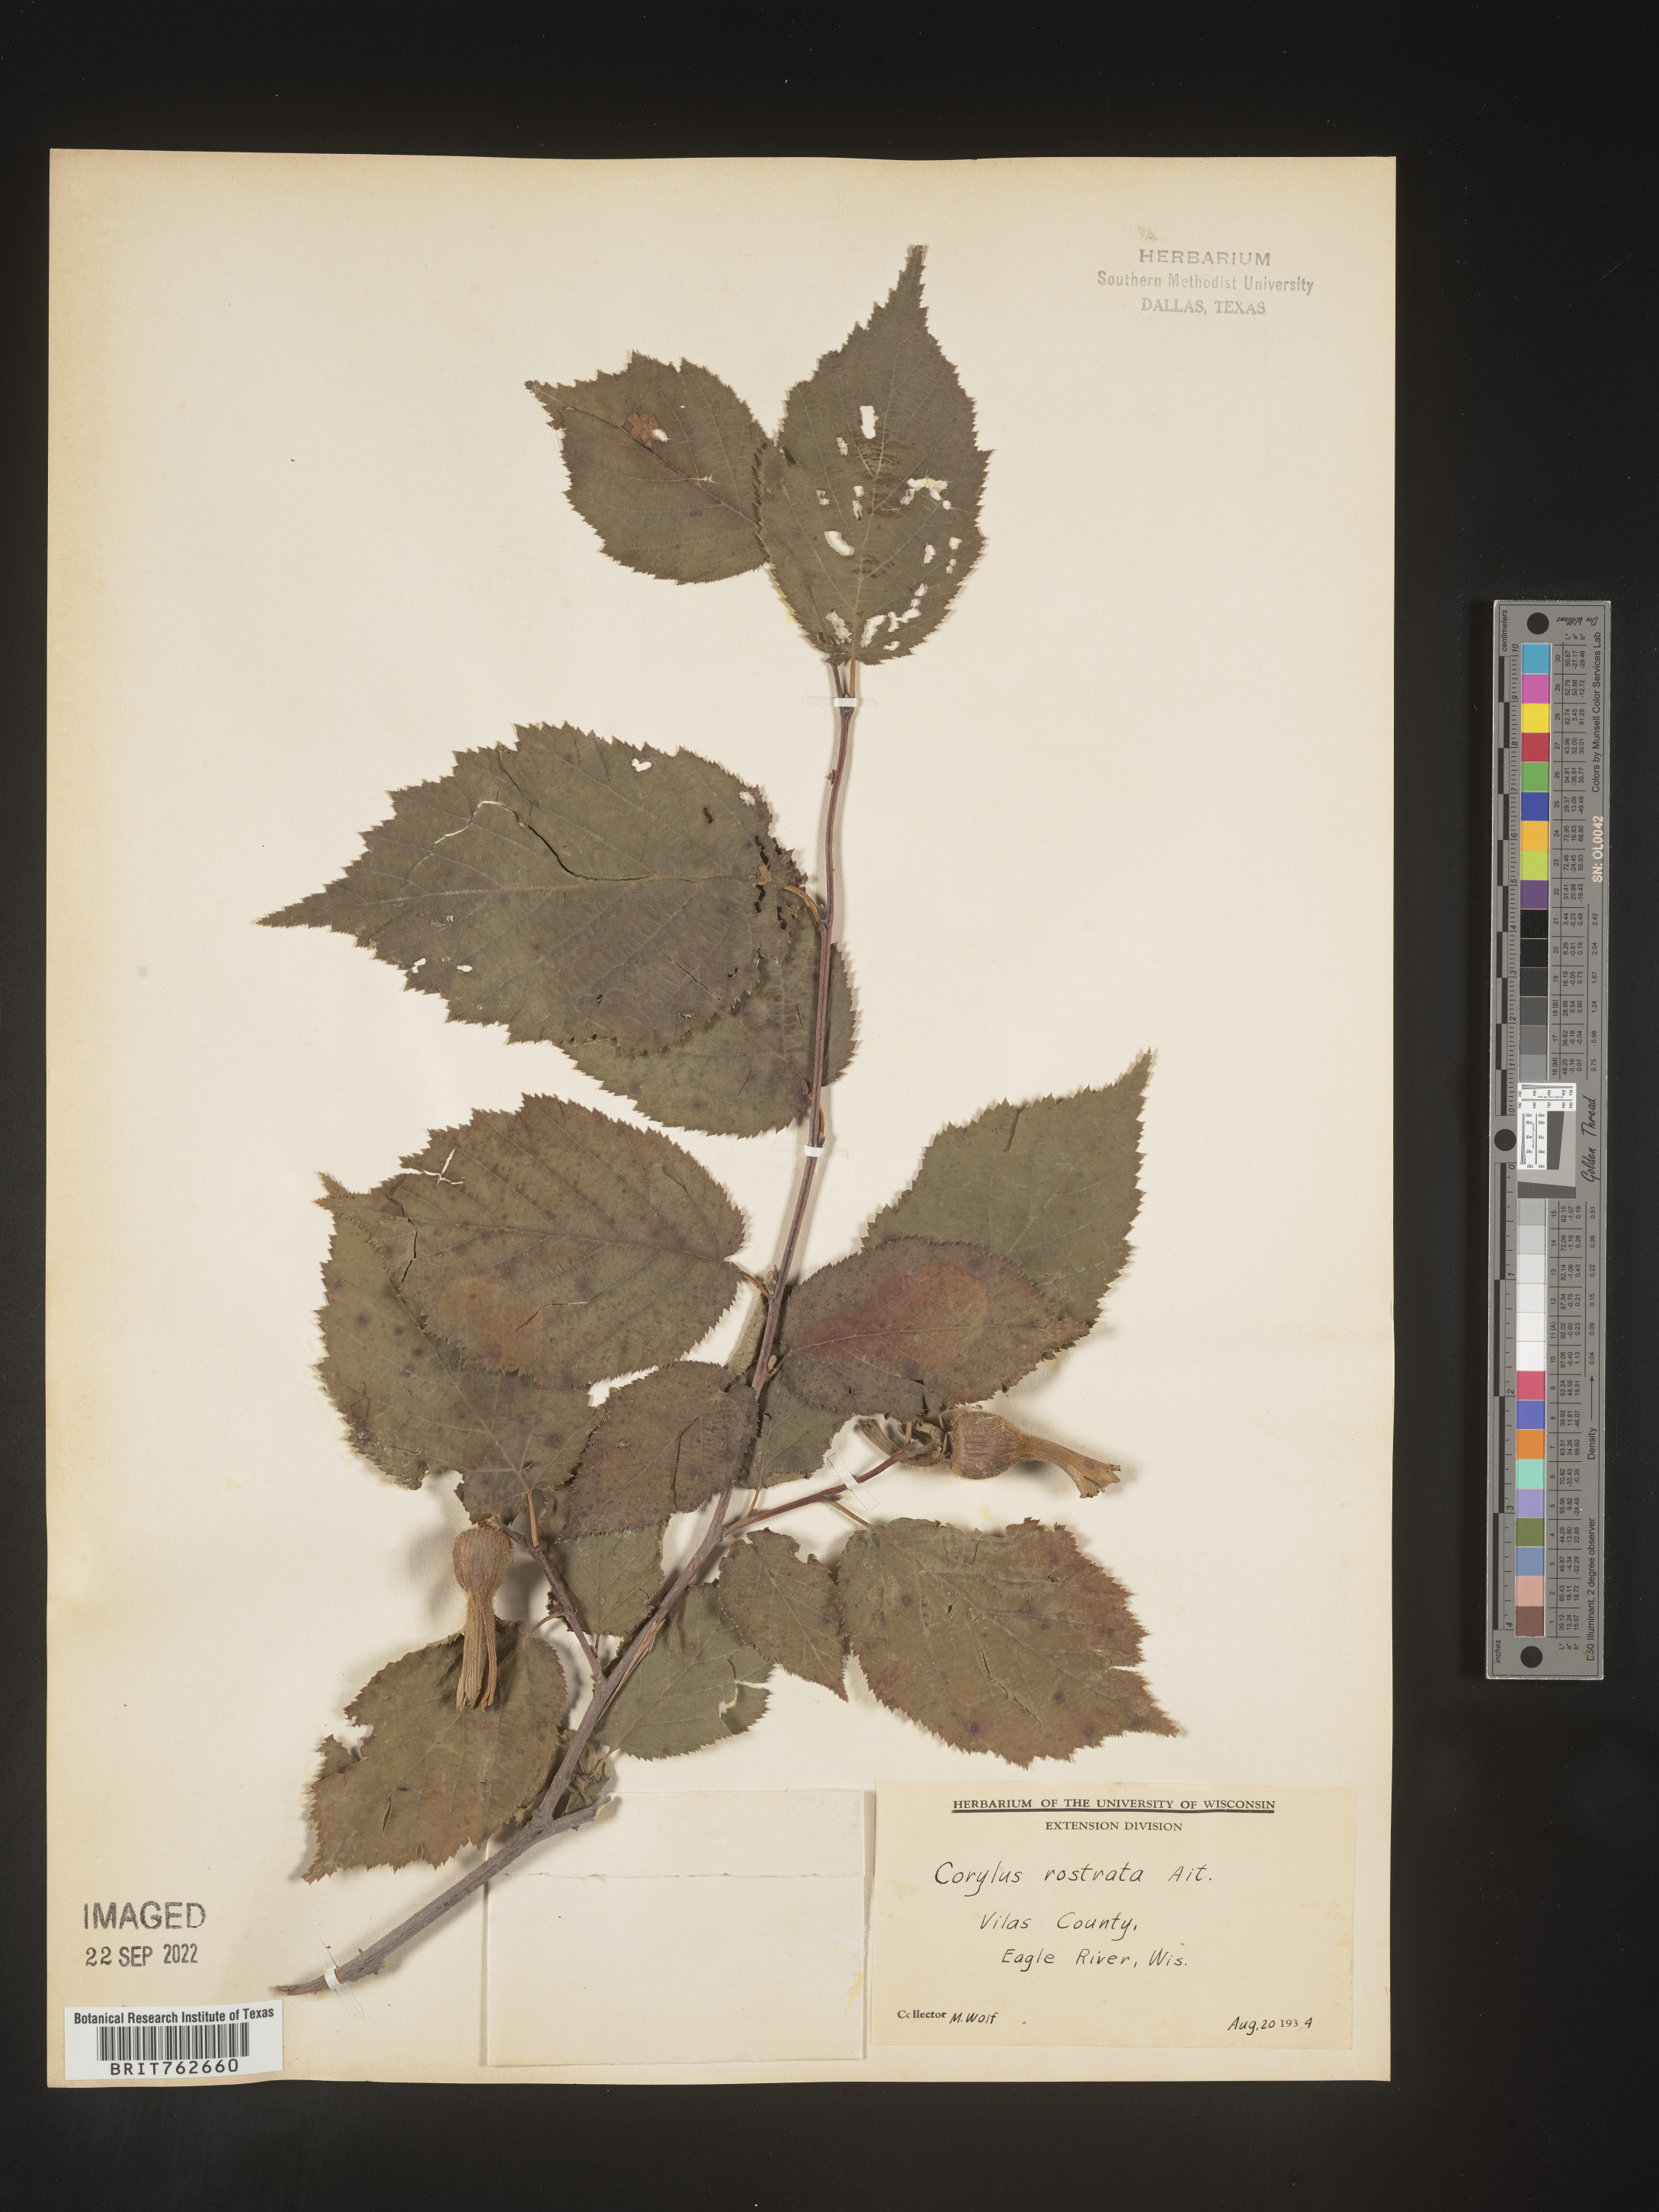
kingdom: Plantae
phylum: Tracheophyta
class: Magnoliopsida
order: Fagales
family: Betulaceae
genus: Corylus
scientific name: Corylus cornuta
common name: Beaked hazel
